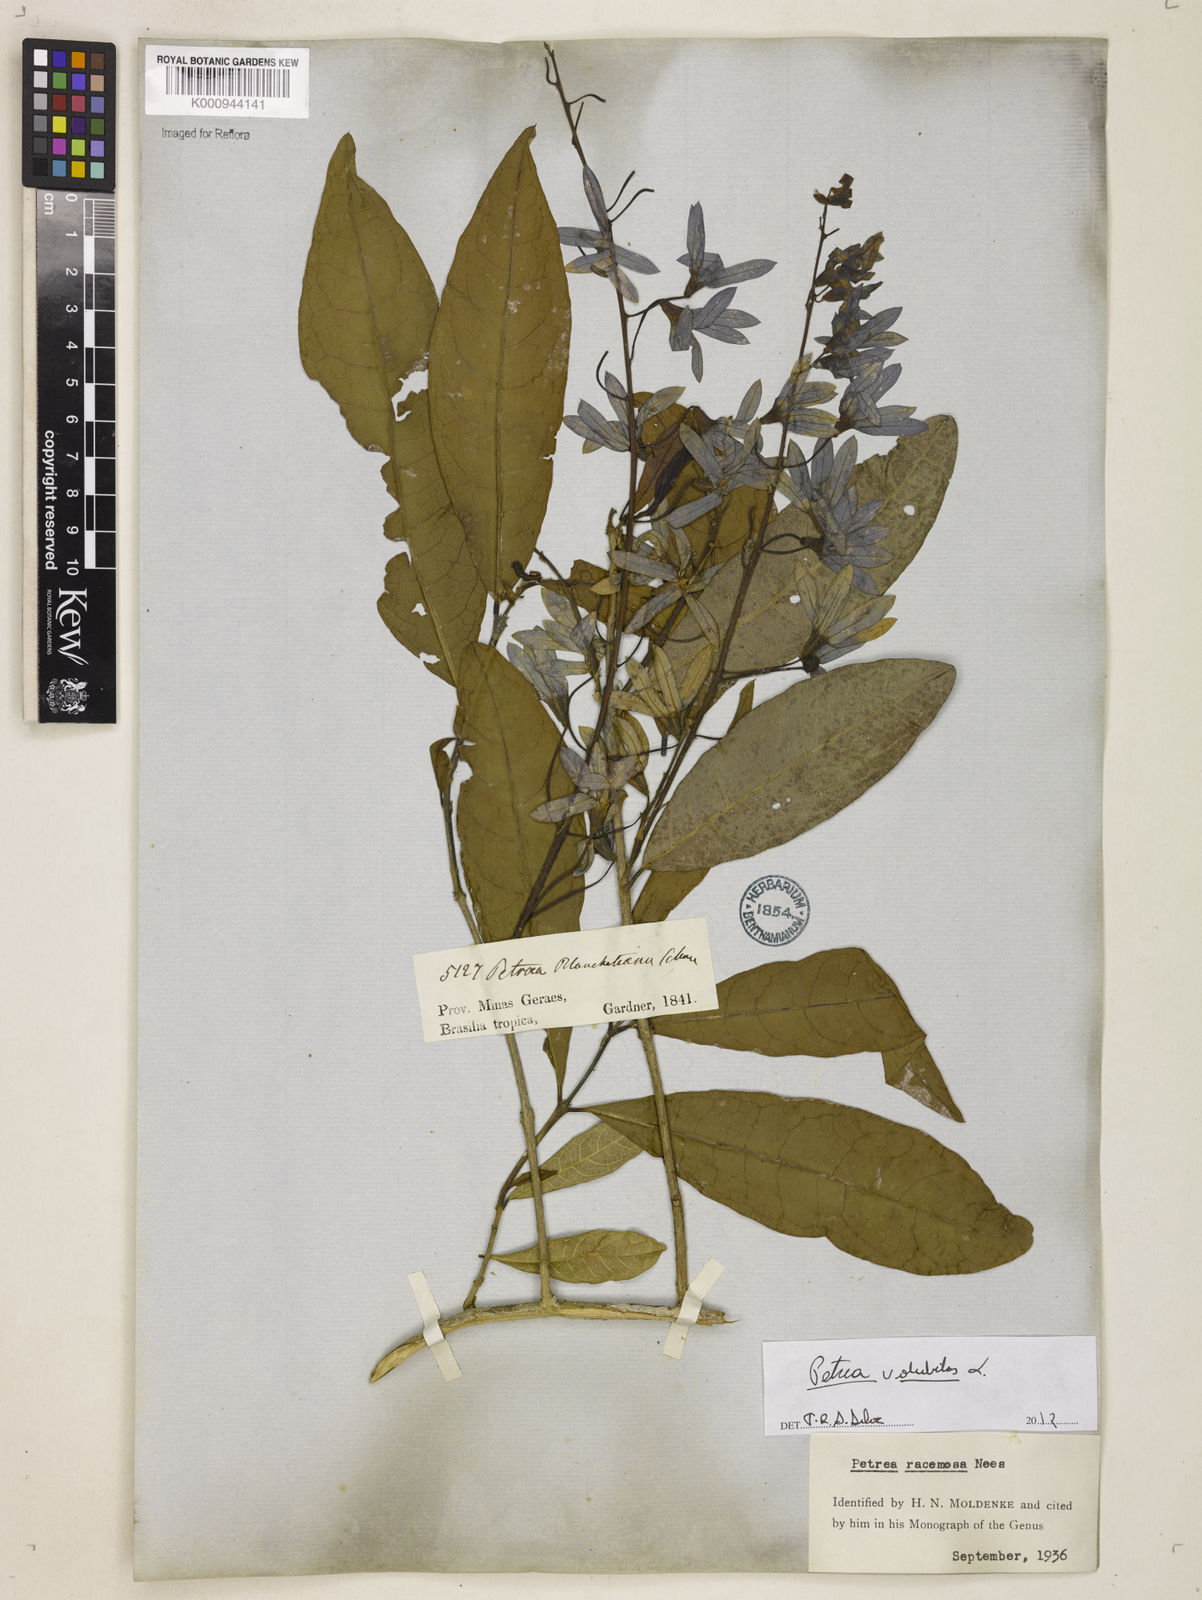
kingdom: Plantae
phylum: Tracheophyta
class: Magnoliopsida
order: Lamiales
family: Verbenaceae
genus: Petrea
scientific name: Petrea volubilis
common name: Queen's-wreath
